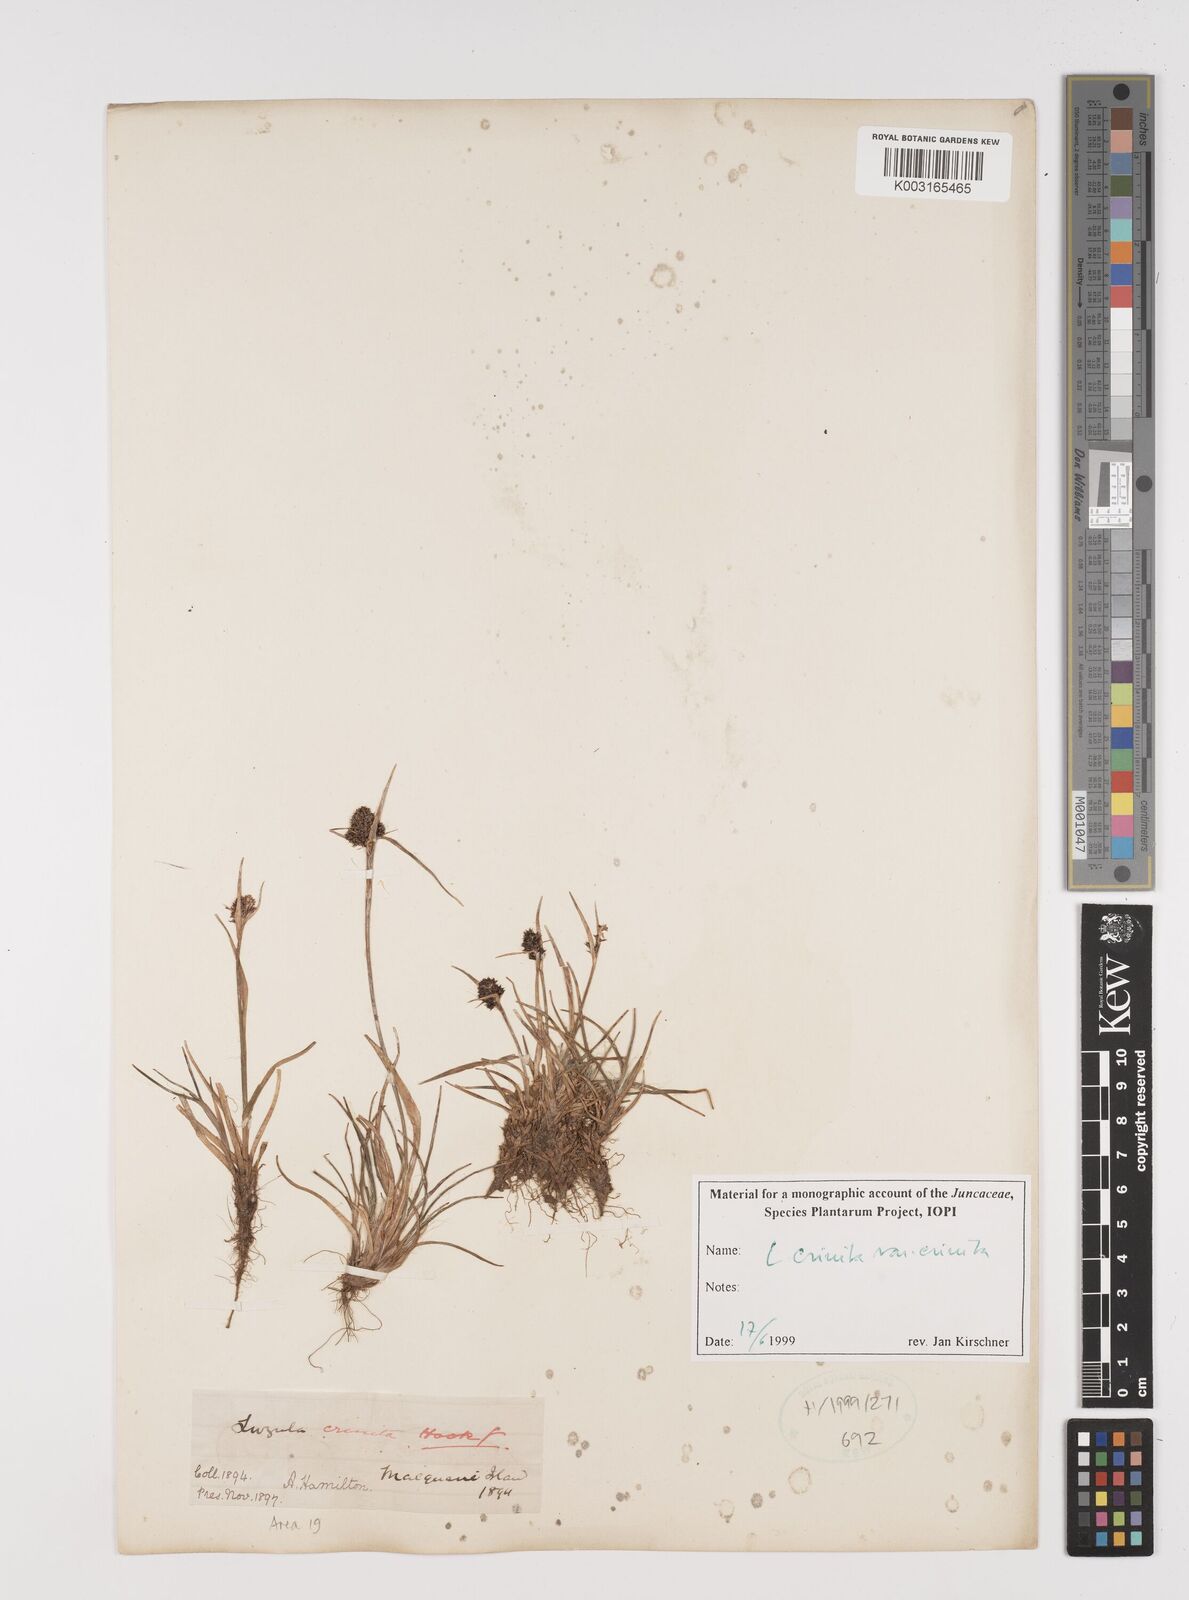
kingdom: Plantae
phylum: Tracheophyta
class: Liliopsida
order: Poales
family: Juncaceae
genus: Luzula
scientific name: Luzula crinita
